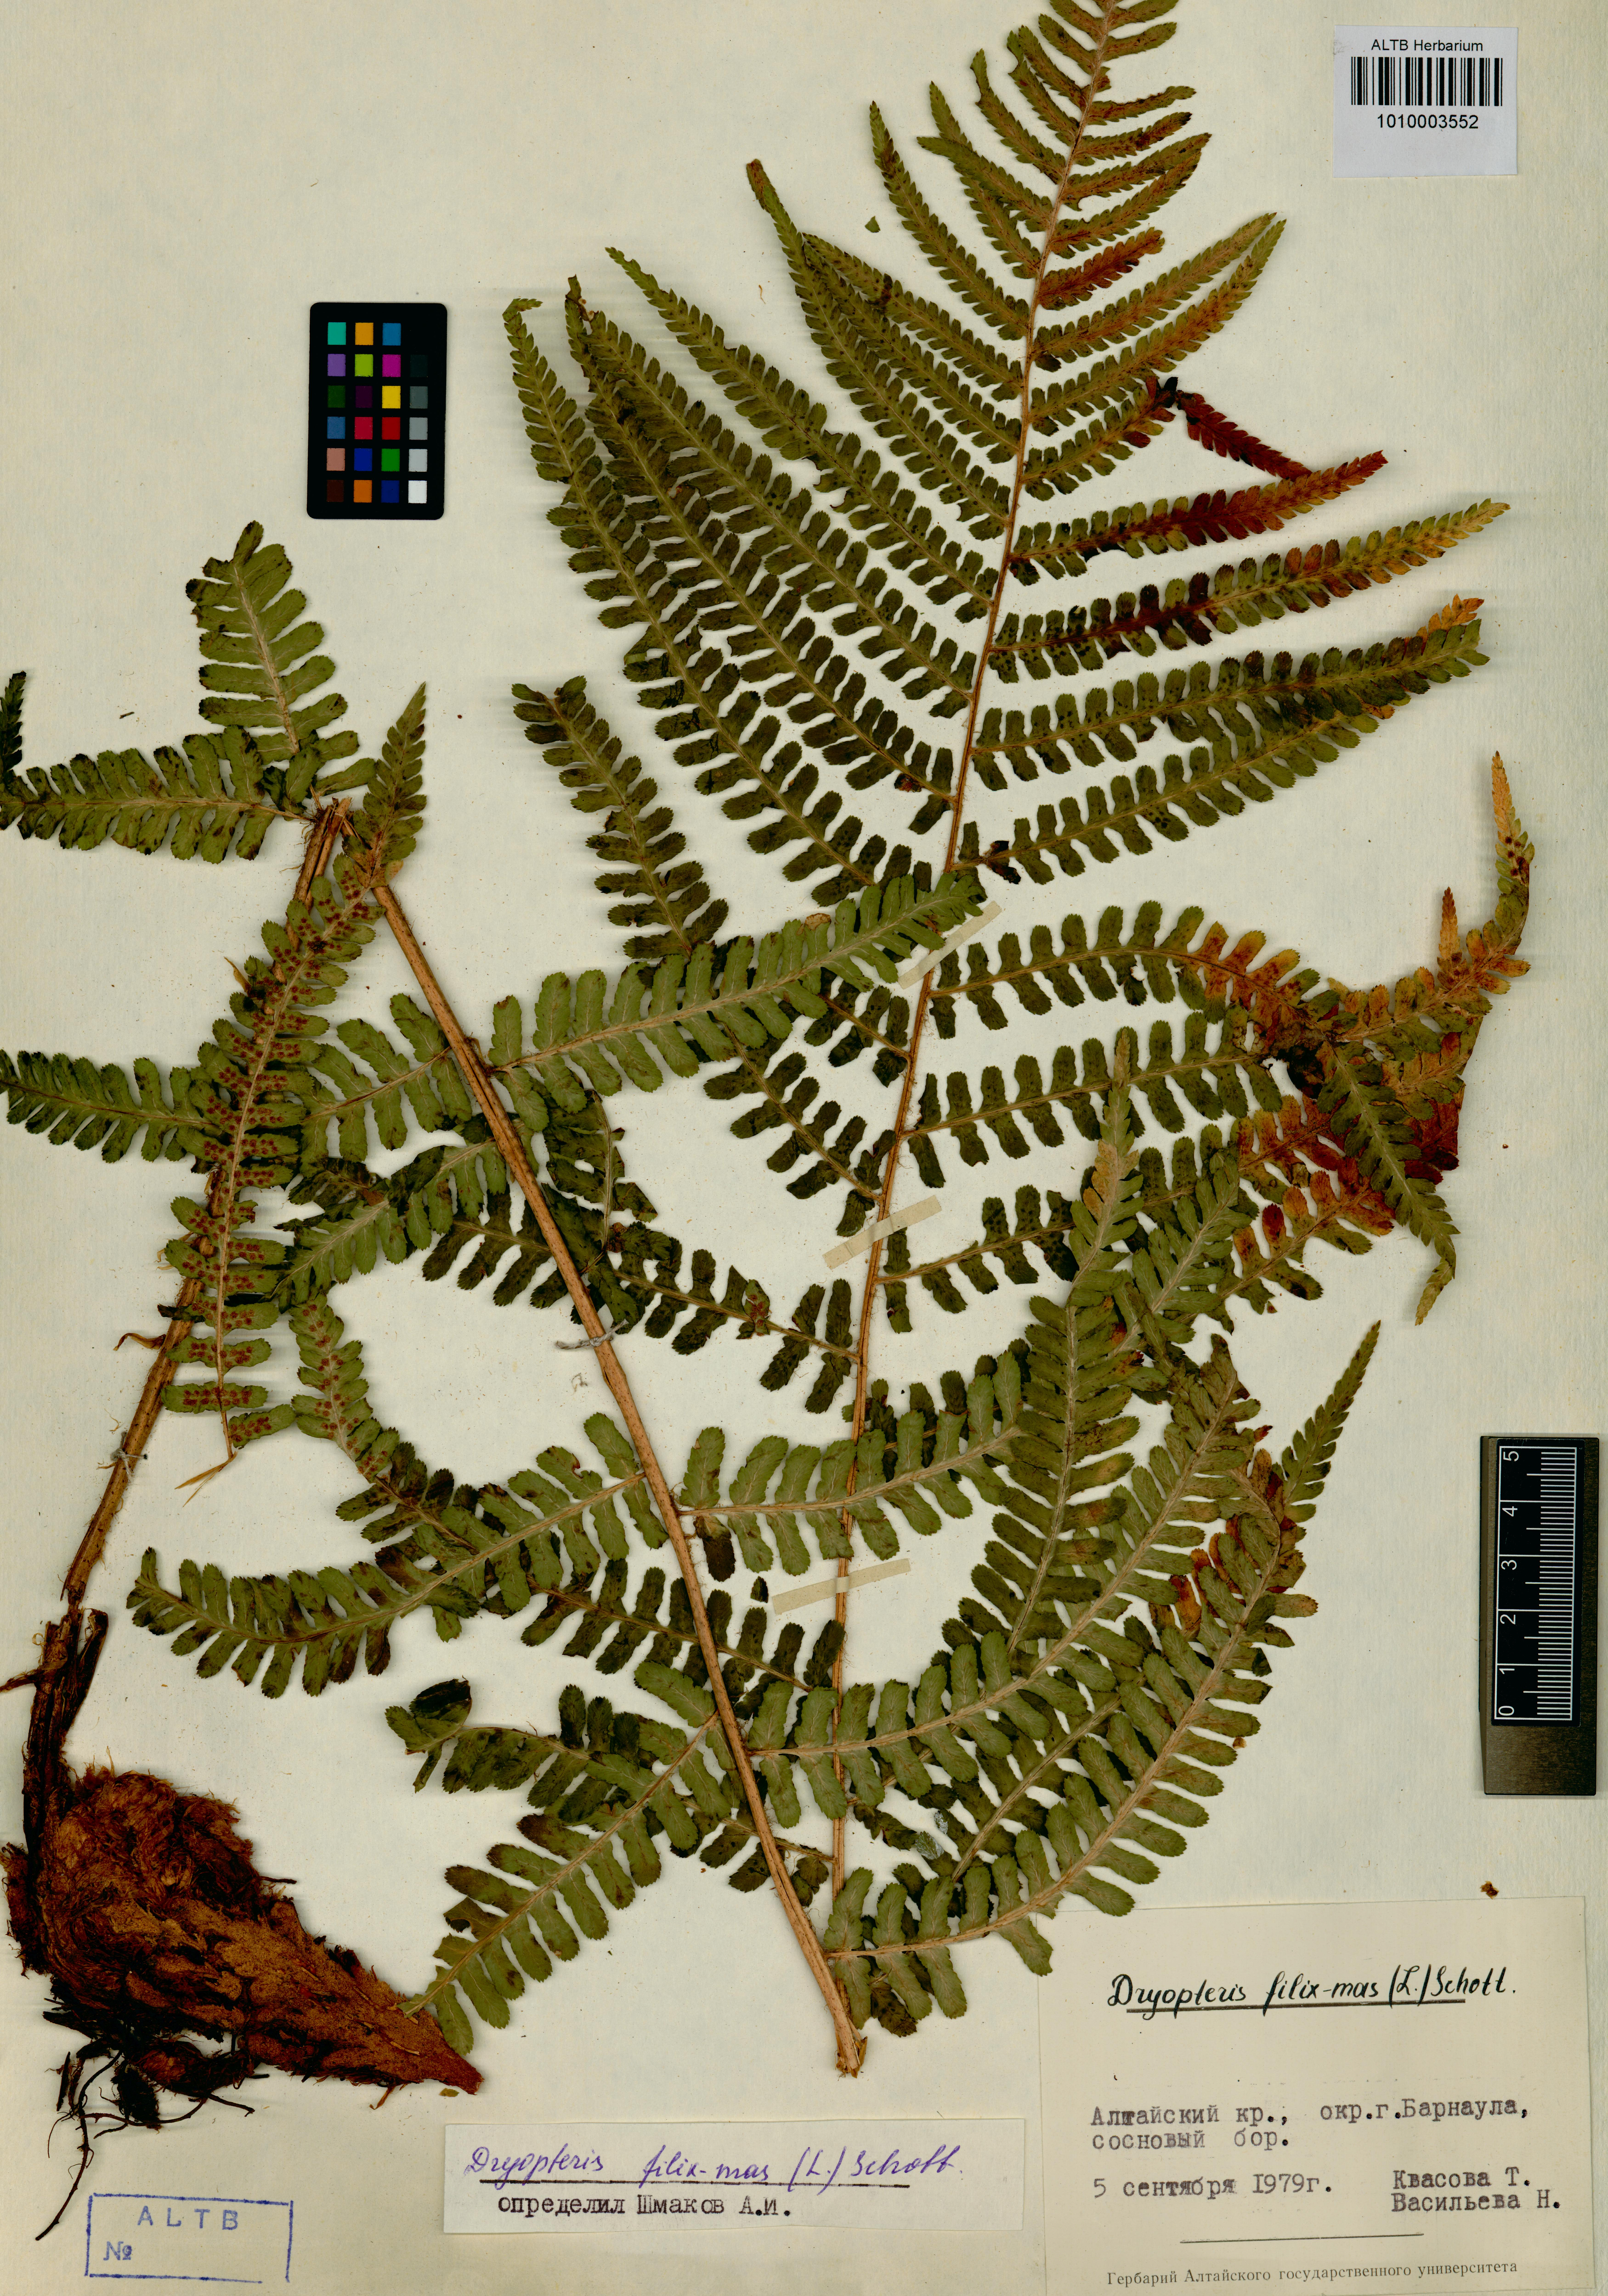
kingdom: Plantae
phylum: Tracheophyta
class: Polypodiopsida
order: Polypodiales
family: Dryopteridaceae
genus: Dryopteris
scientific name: Dryopteris filix-mas
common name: Male fern
